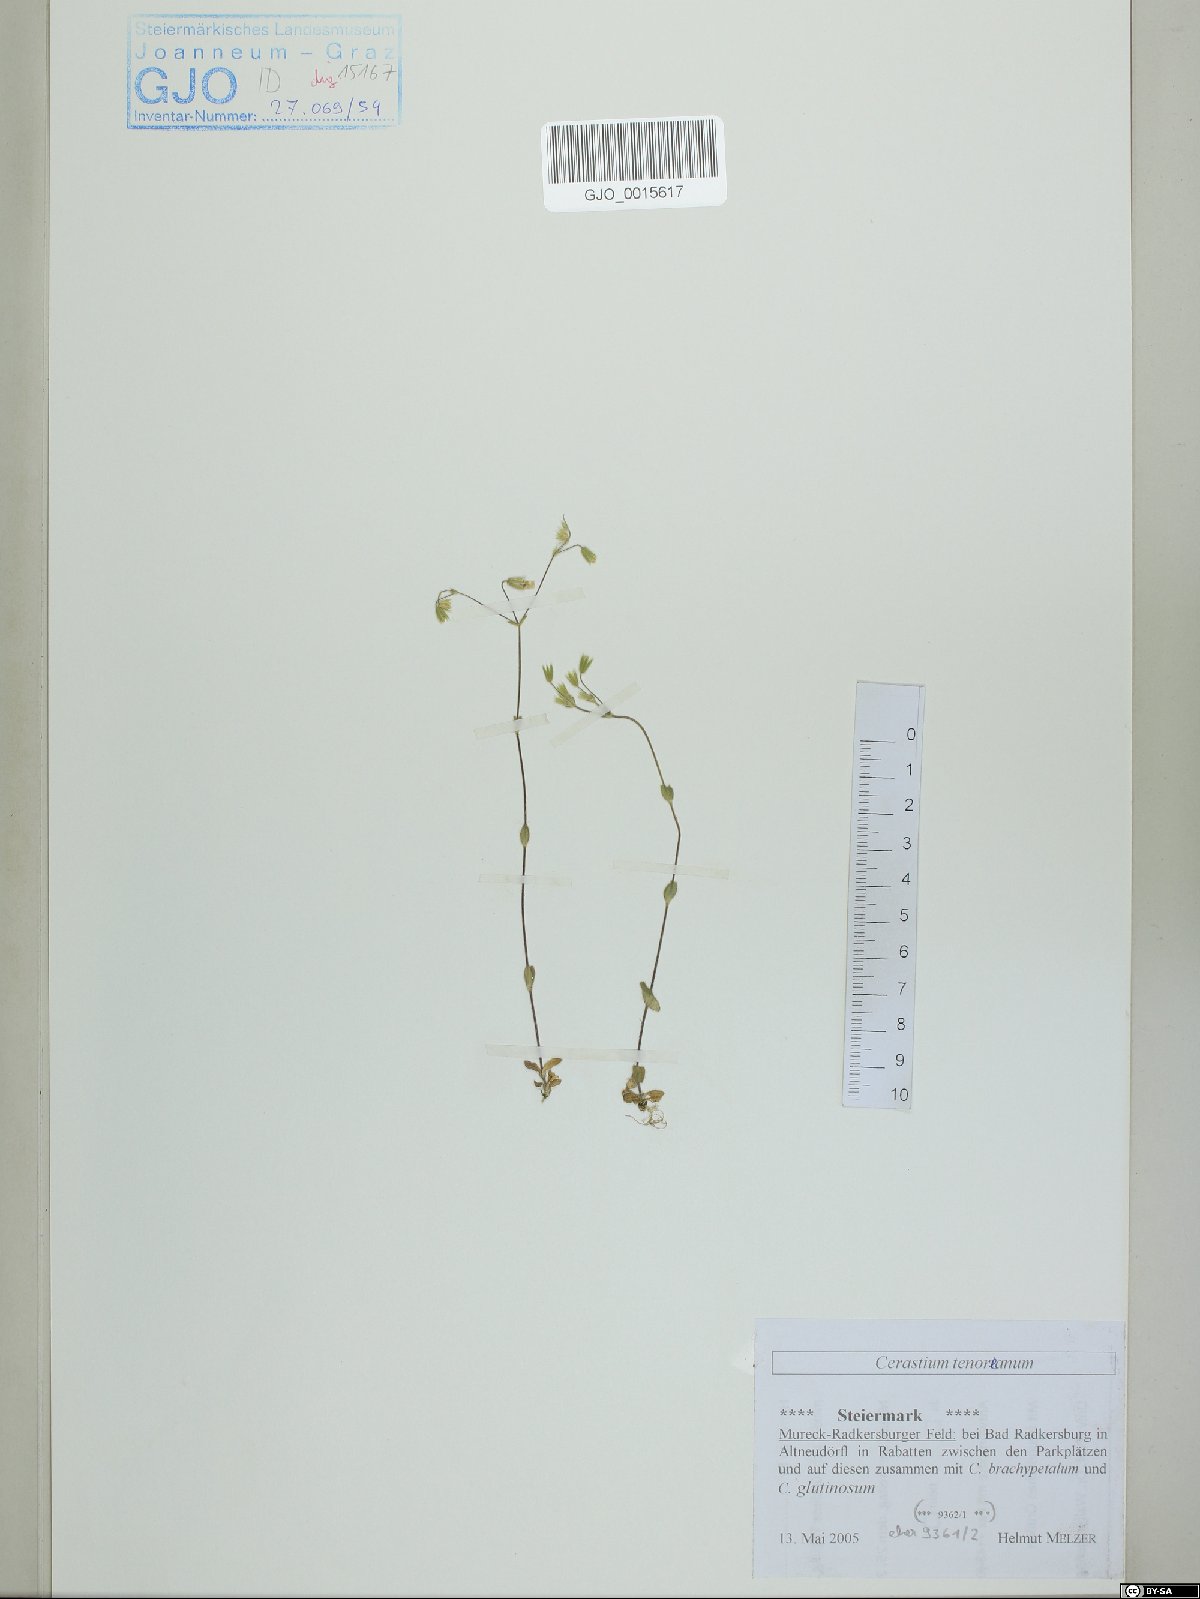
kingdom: Plantae
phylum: Tracheophyta
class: Magnoliopsida
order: Caryophyllales
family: Caryophyllaceae
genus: Cerastium
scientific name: Cerastium tenoreanum
